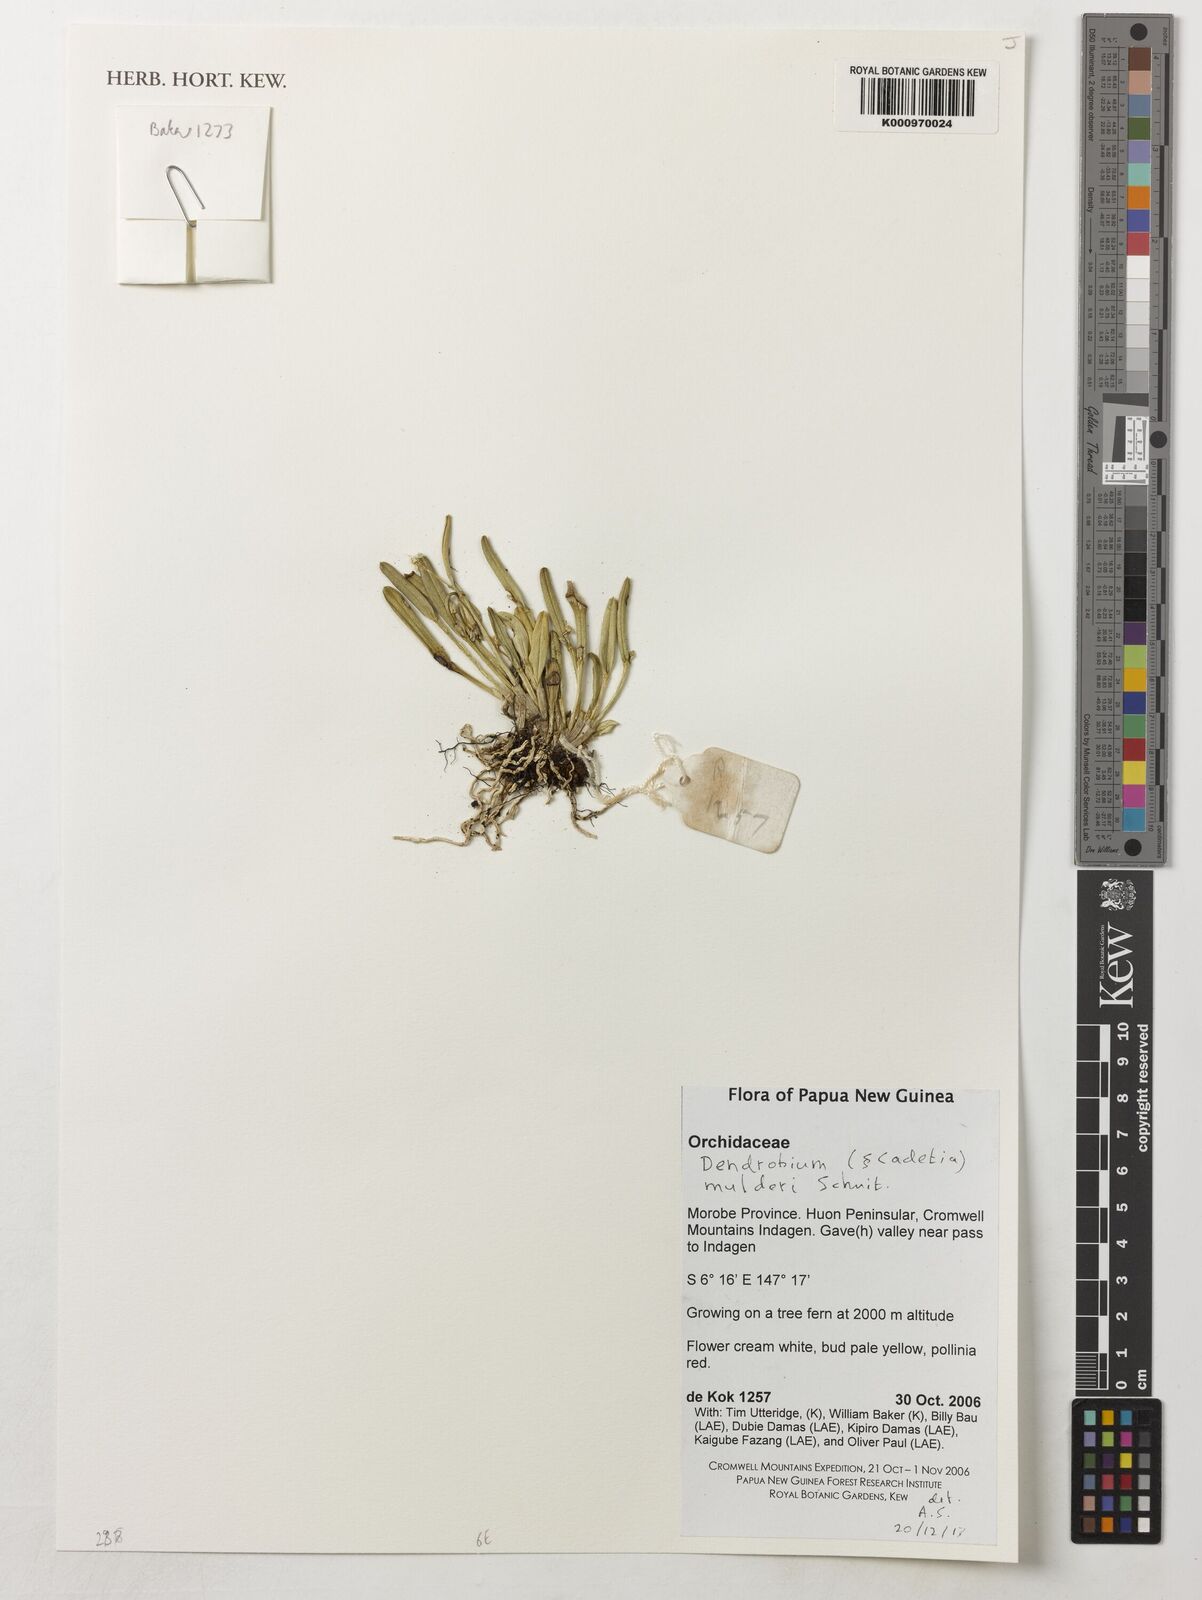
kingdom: Plantae
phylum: Tracheophyta
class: Liliopsida
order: Asparagales
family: Orchidaceae
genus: Dendrobium
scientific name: Dendrobium mulderi
